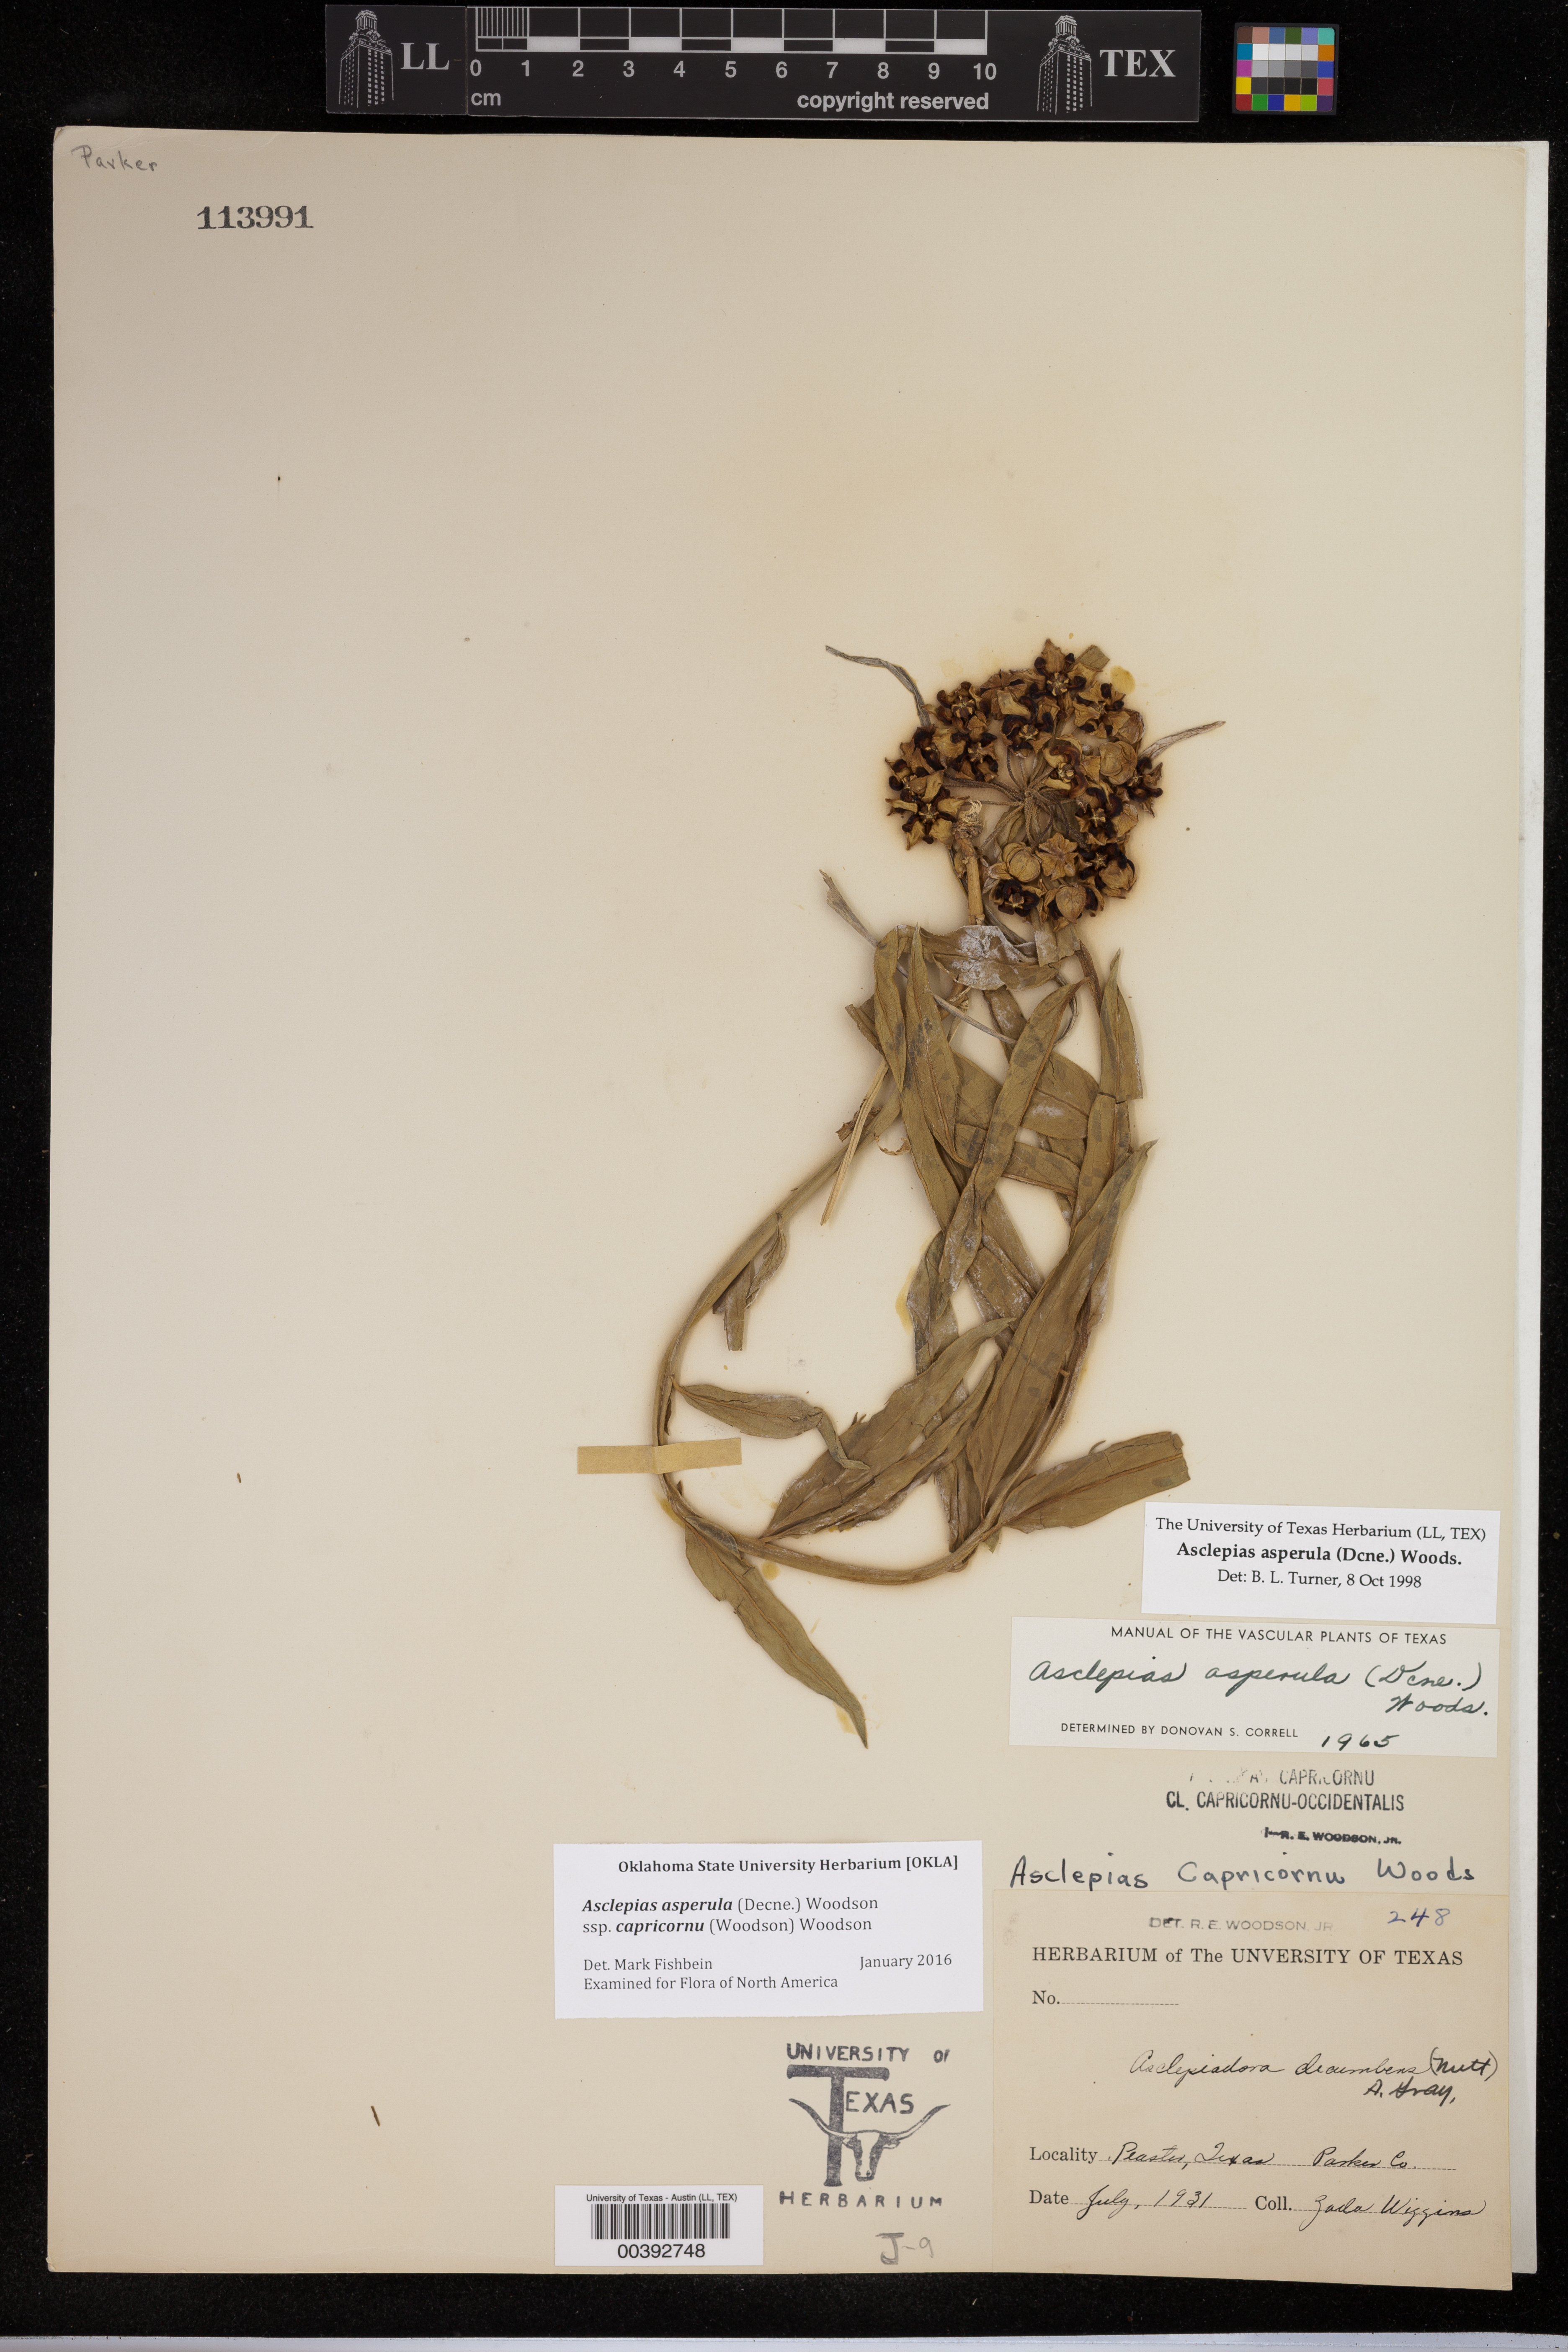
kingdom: Plantae
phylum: Tracheophyta
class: Magnoliopsida
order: Gentianales
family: Apocynaceae
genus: Asclepias
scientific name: Asclepias asperula
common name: Antelope horns
